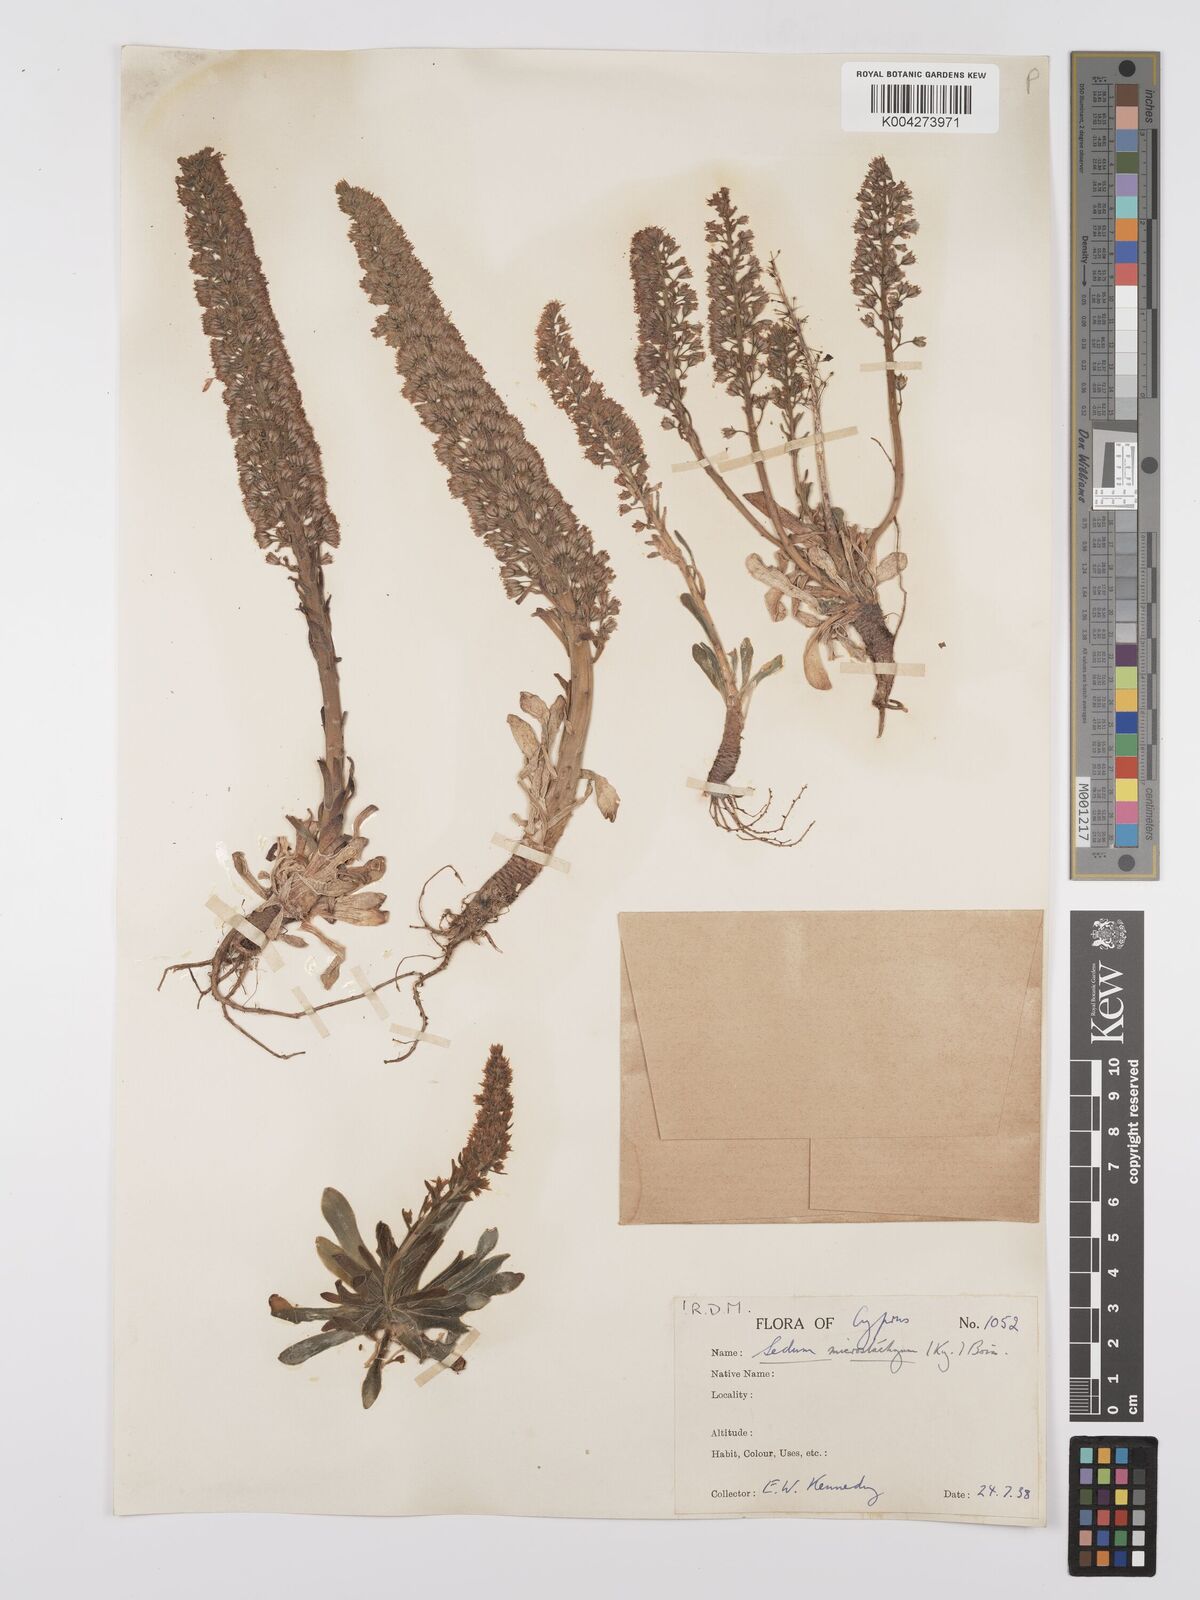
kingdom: Plantae
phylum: Tracheophyta
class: Magnoliopsida
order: Saxifragales
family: Crassulaceae
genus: Sedum
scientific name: Sedum microstachyum
